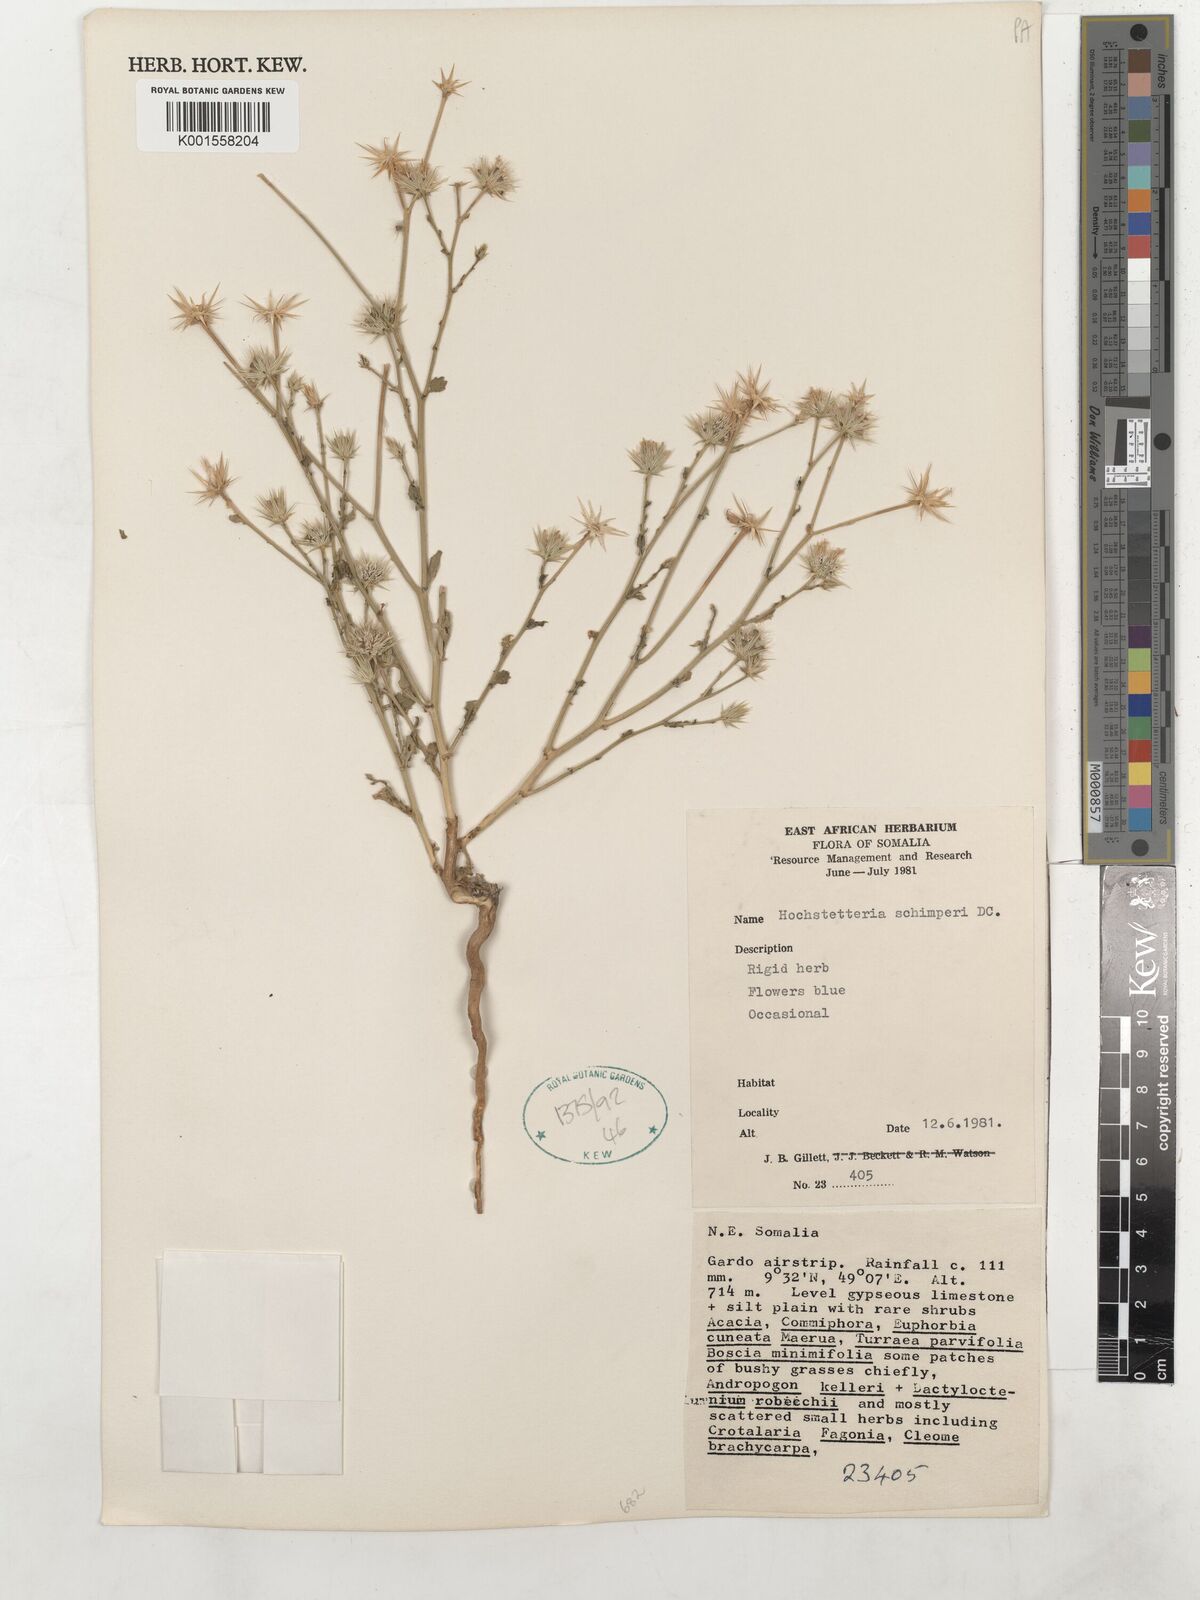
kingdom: Plantae
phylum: Tracheophyta
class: Magnoliopsida
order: Asterales
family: Asteraceae
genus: Dicoma
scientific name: Dicoma schimperi
